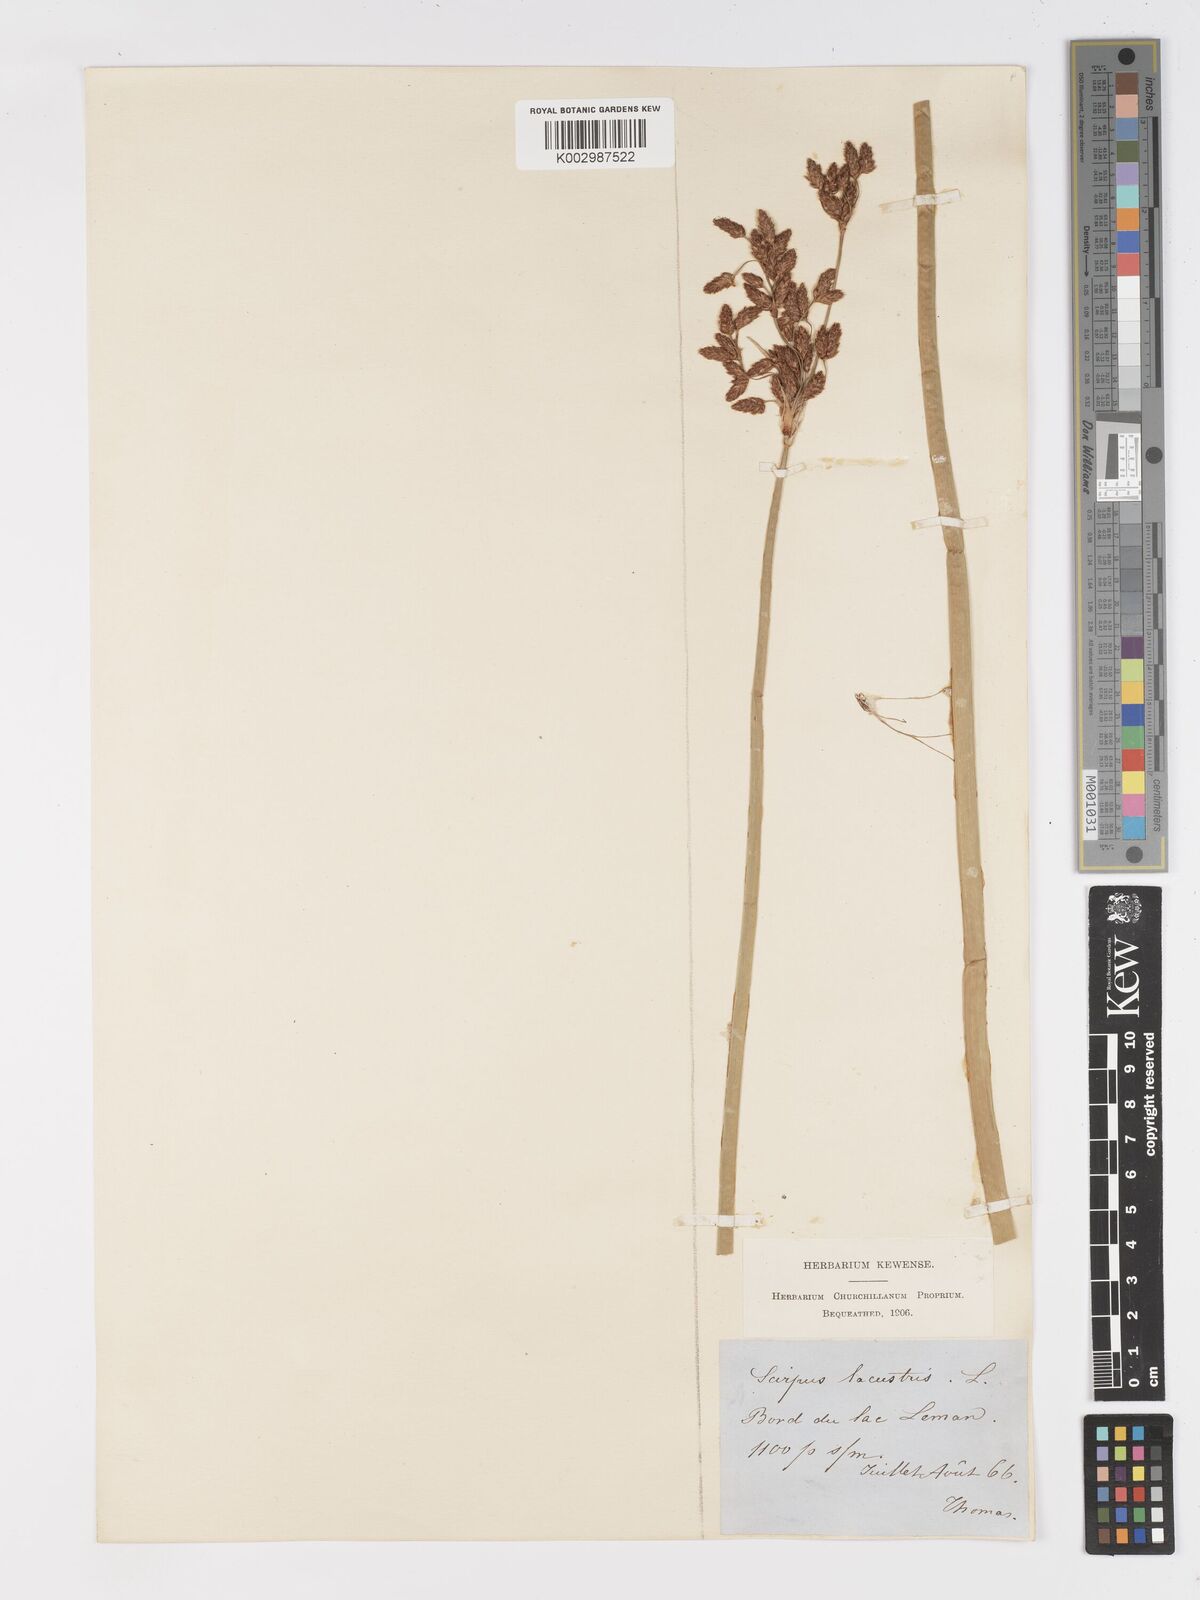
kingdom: Plantae
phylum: Tracheophyta
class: Liliopsida
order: Poales
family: Cyperaceae
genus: Schoenoplectus
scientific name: Schoenoplectus lacustris
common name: Common club-rush
